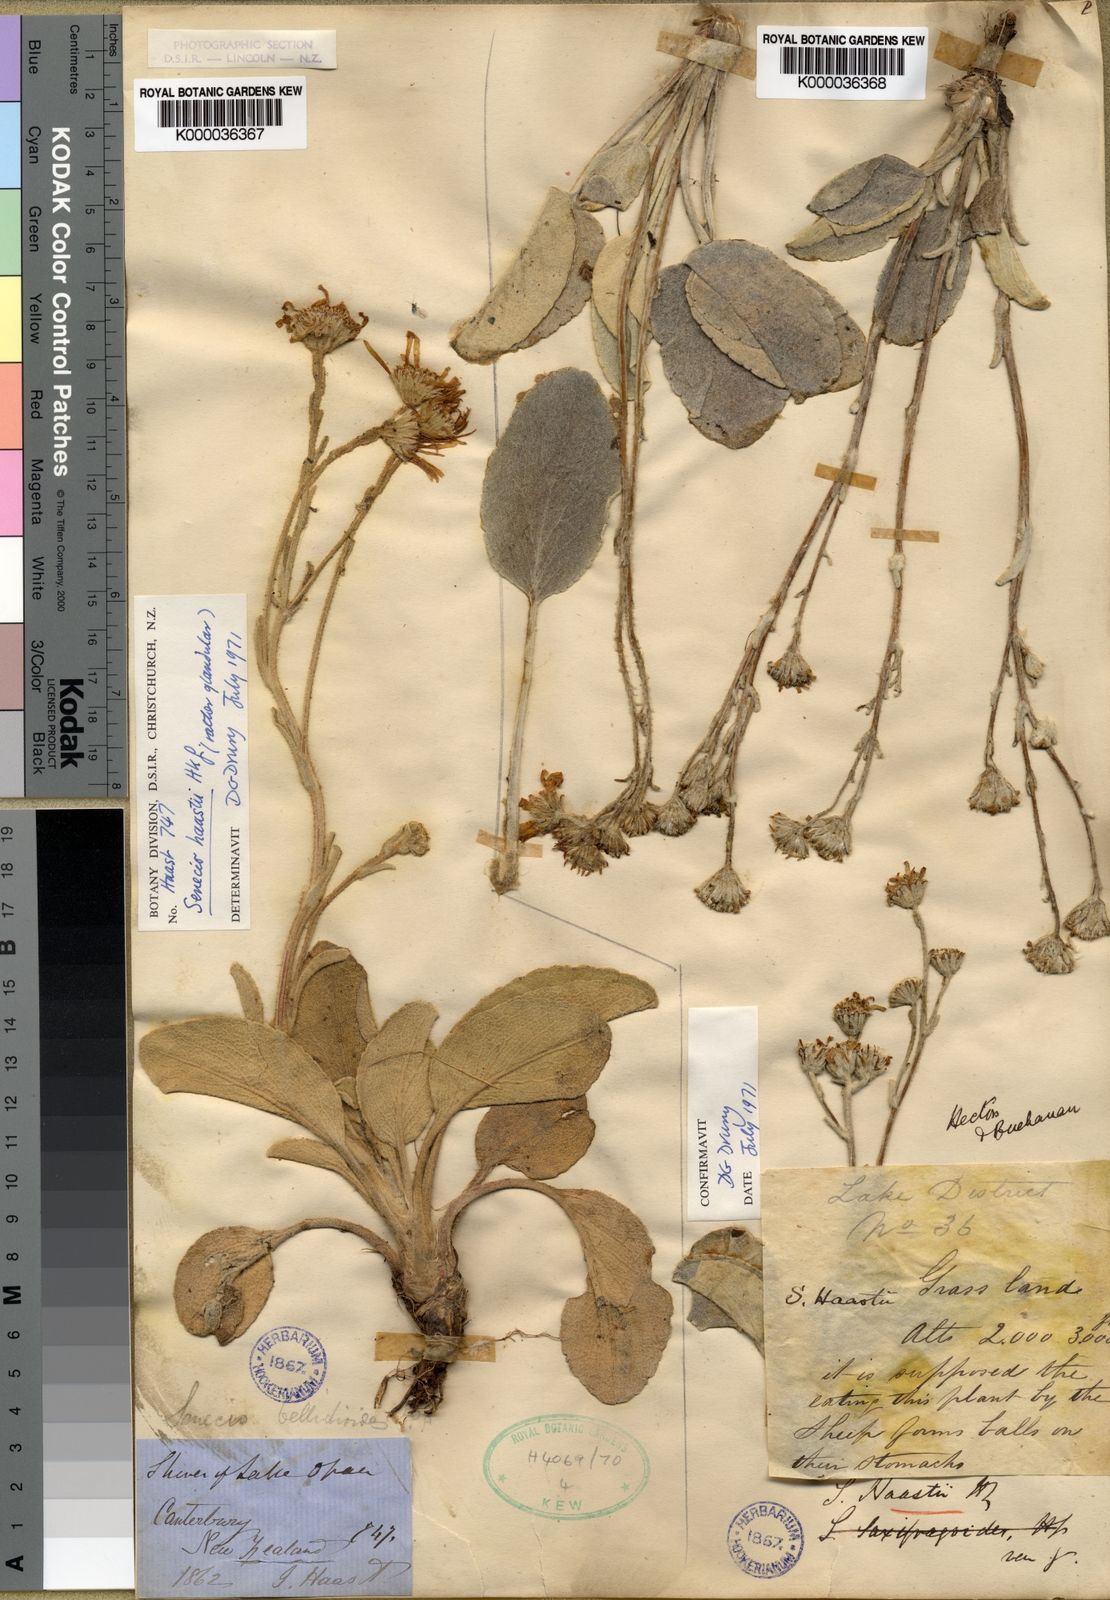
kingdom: Plantae
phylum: Tracheophyta
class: Magnoliopsida
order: Asterales
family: Asteraceae
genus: Brachyglottis
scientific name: Brachyglottis haastii
